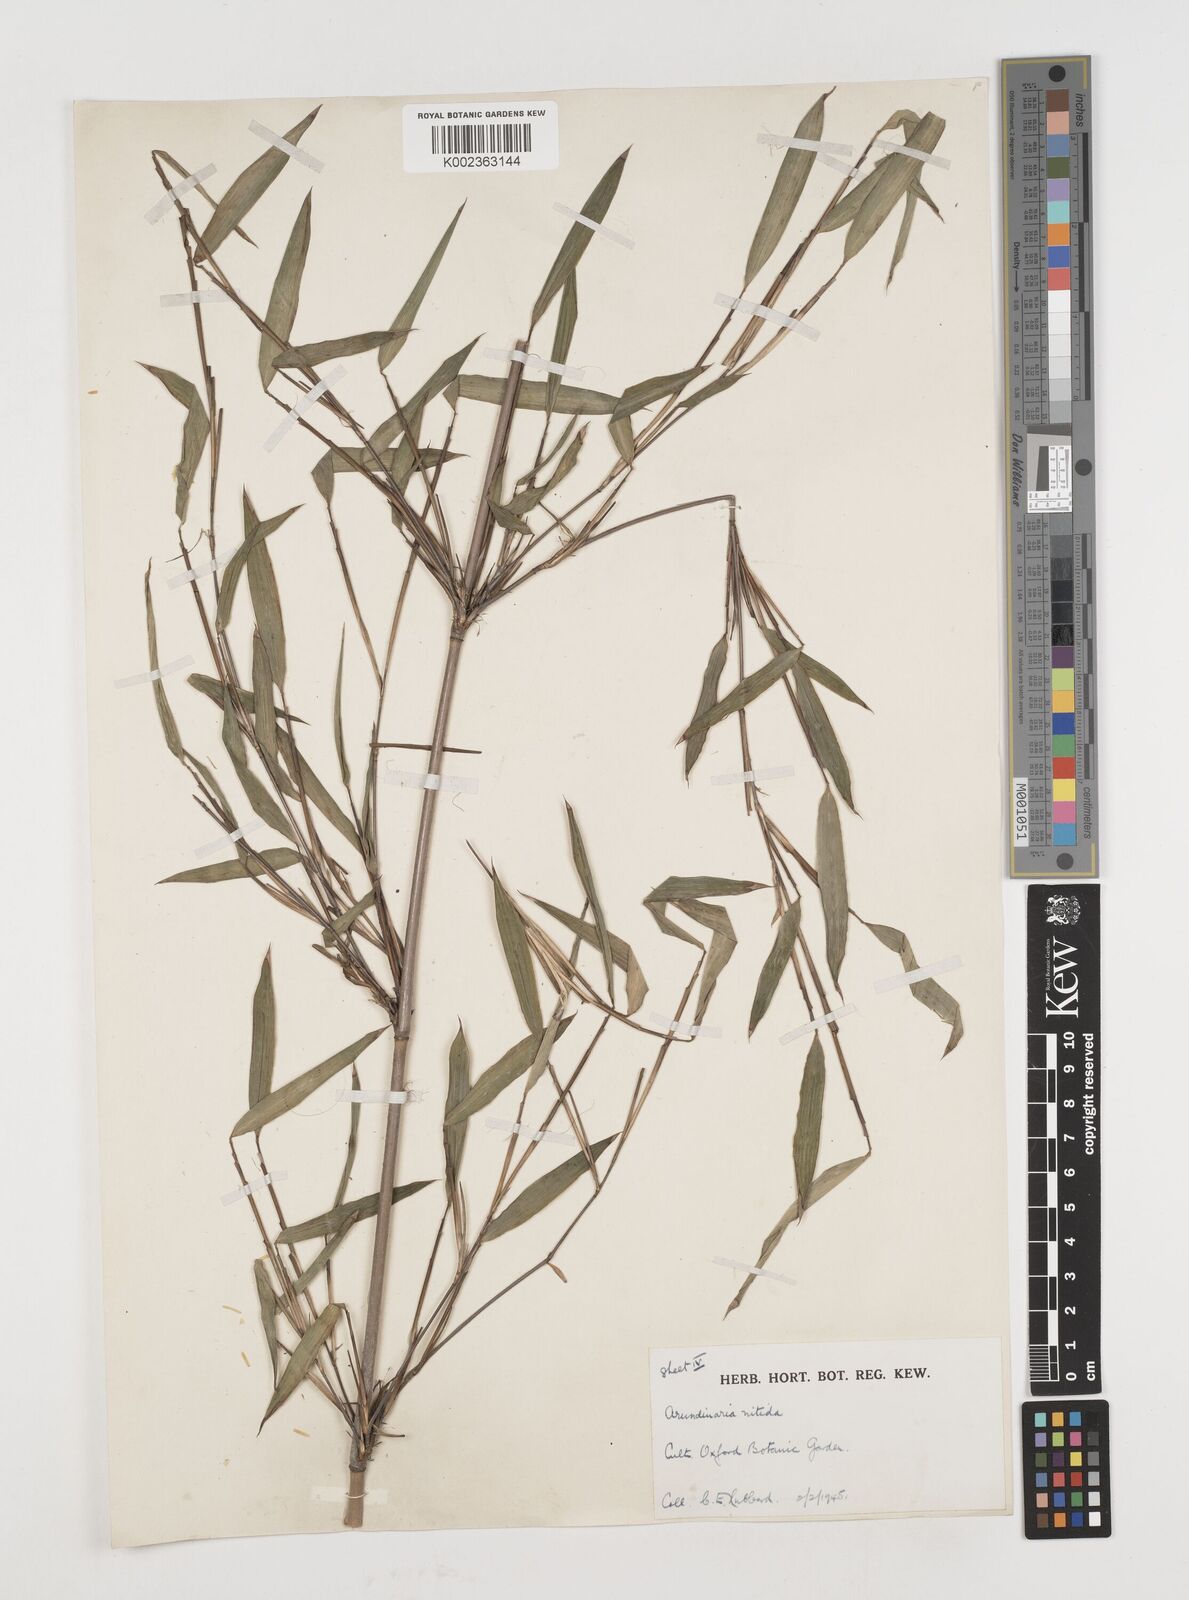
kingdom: Plantae
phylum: Tracheophyta
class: Liliopsida
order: Poales
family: Poaceae
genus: Fargesia
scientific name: Fargesia nitida ex
